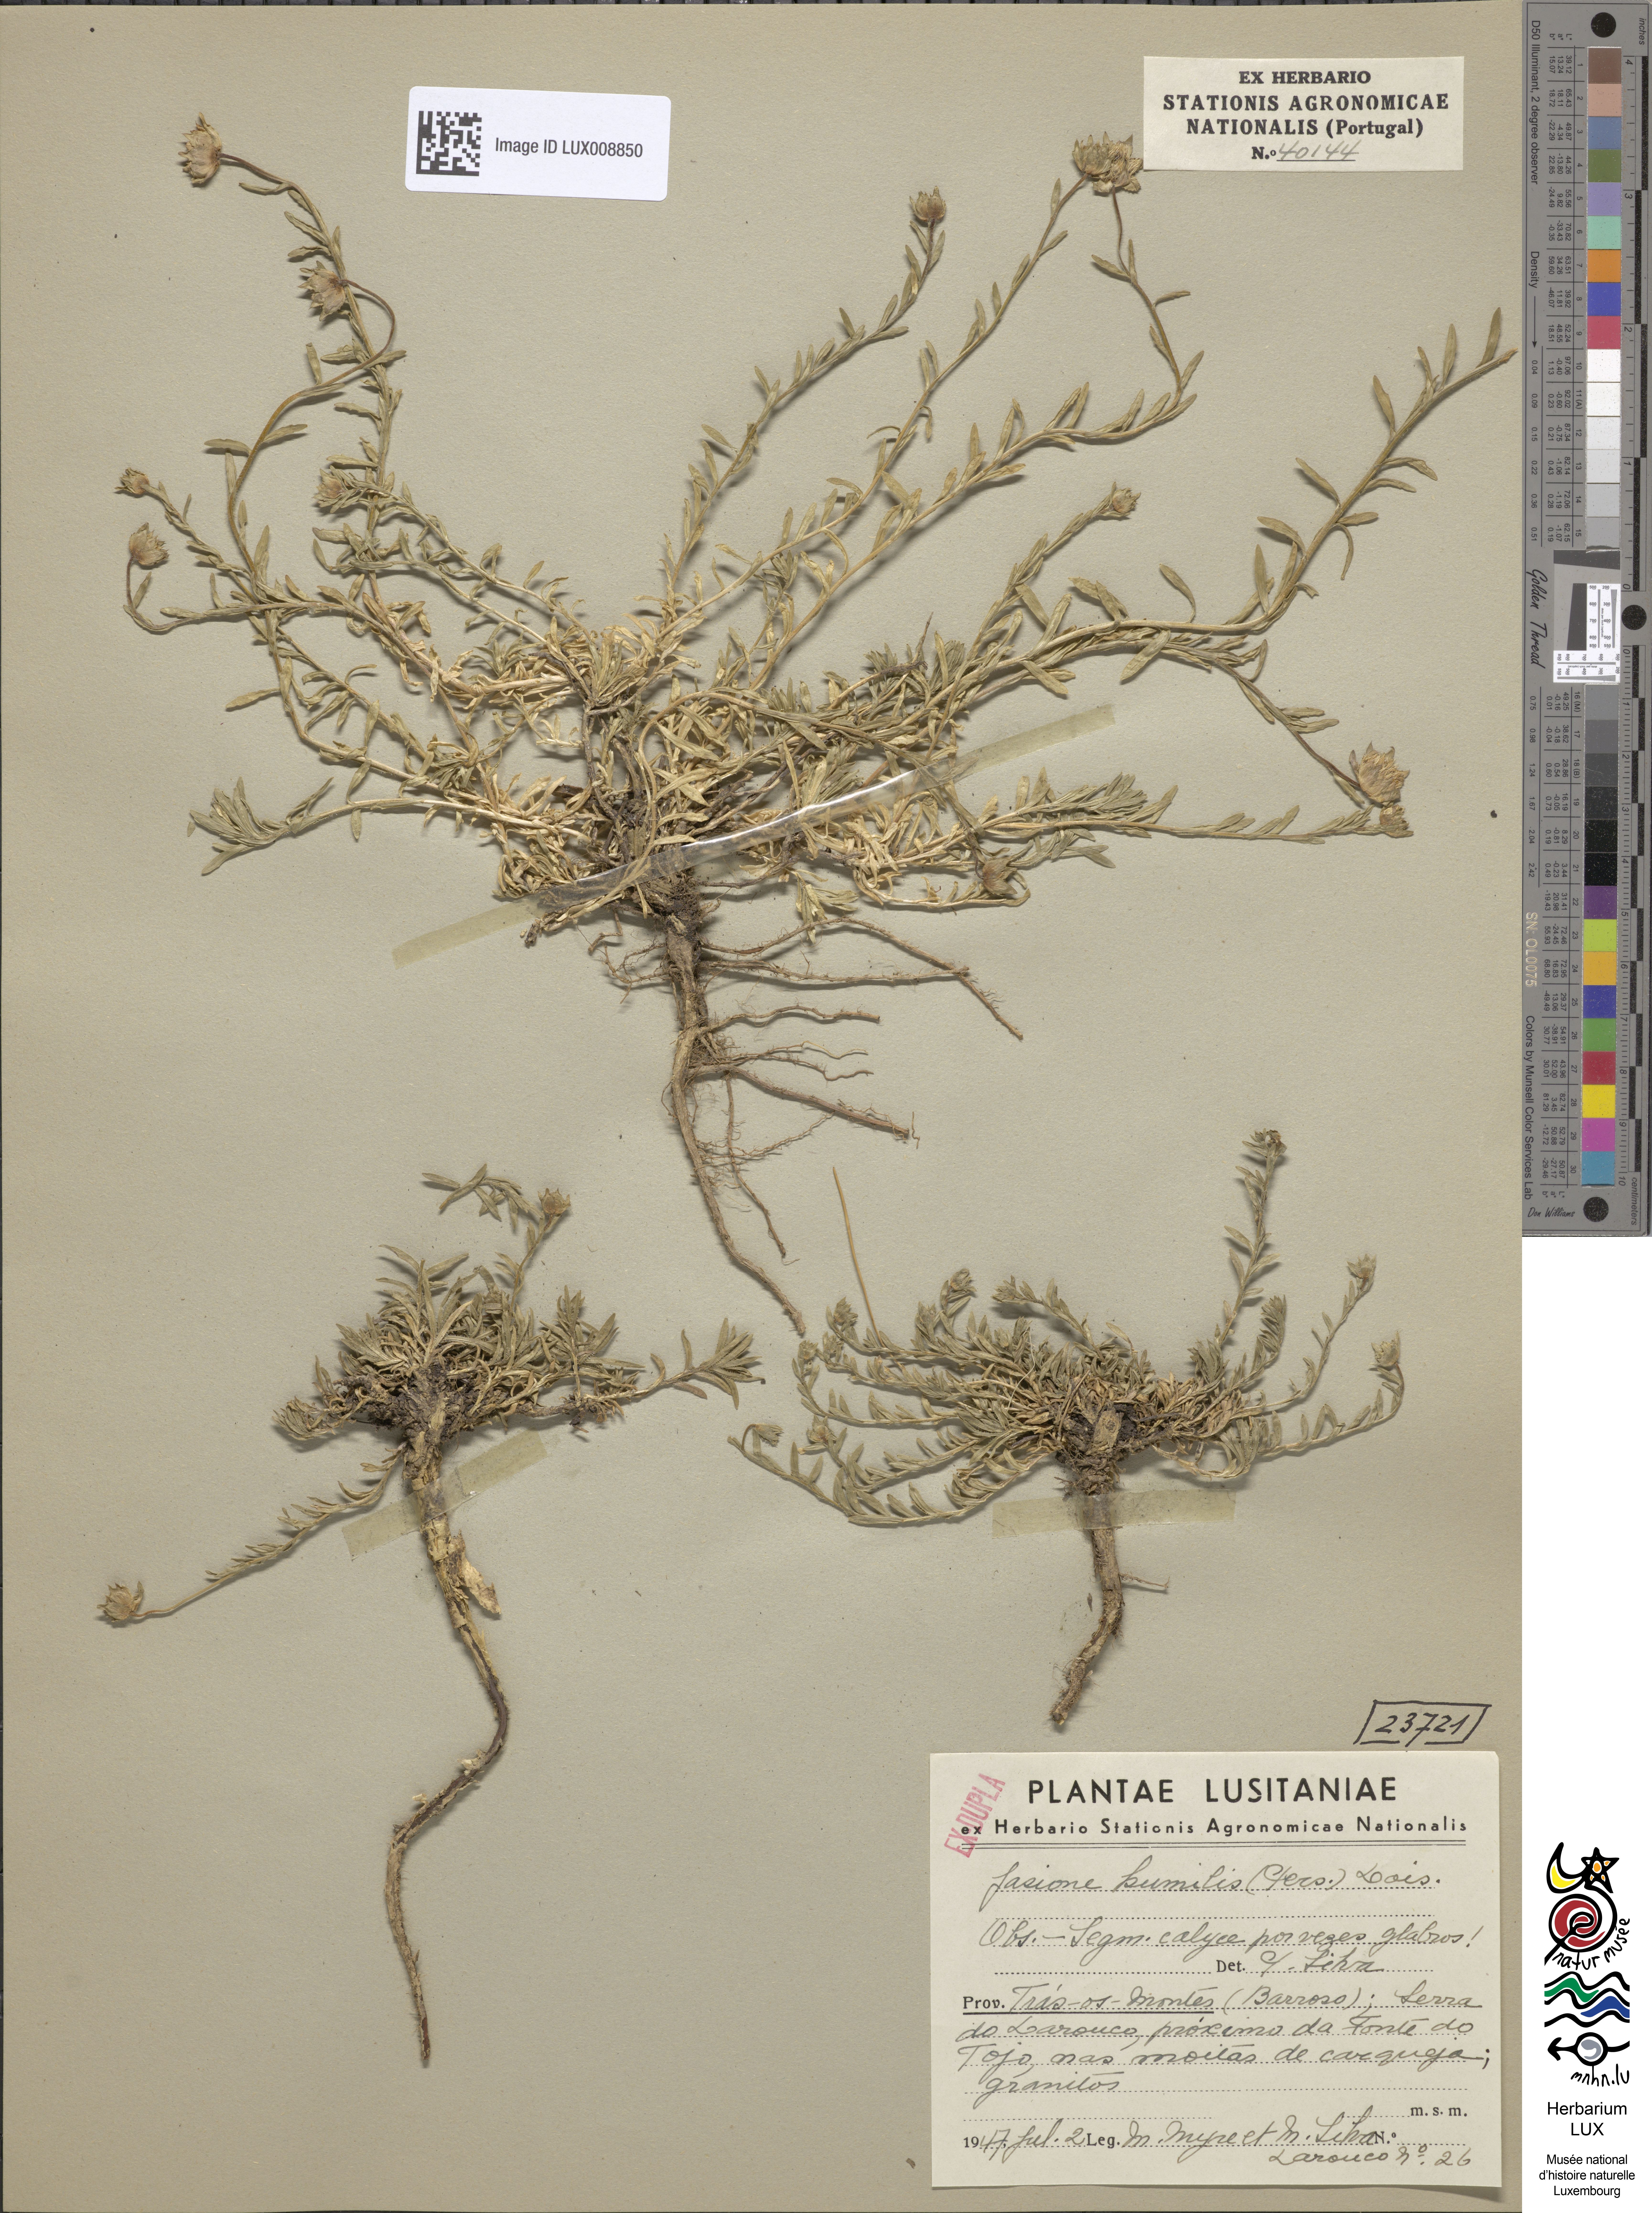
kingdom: Plantae
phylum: Tracheophyta
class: Magnoliopsida
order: Asterales
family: Campanulaceae
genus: Jasione
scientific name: Jasione crispa
